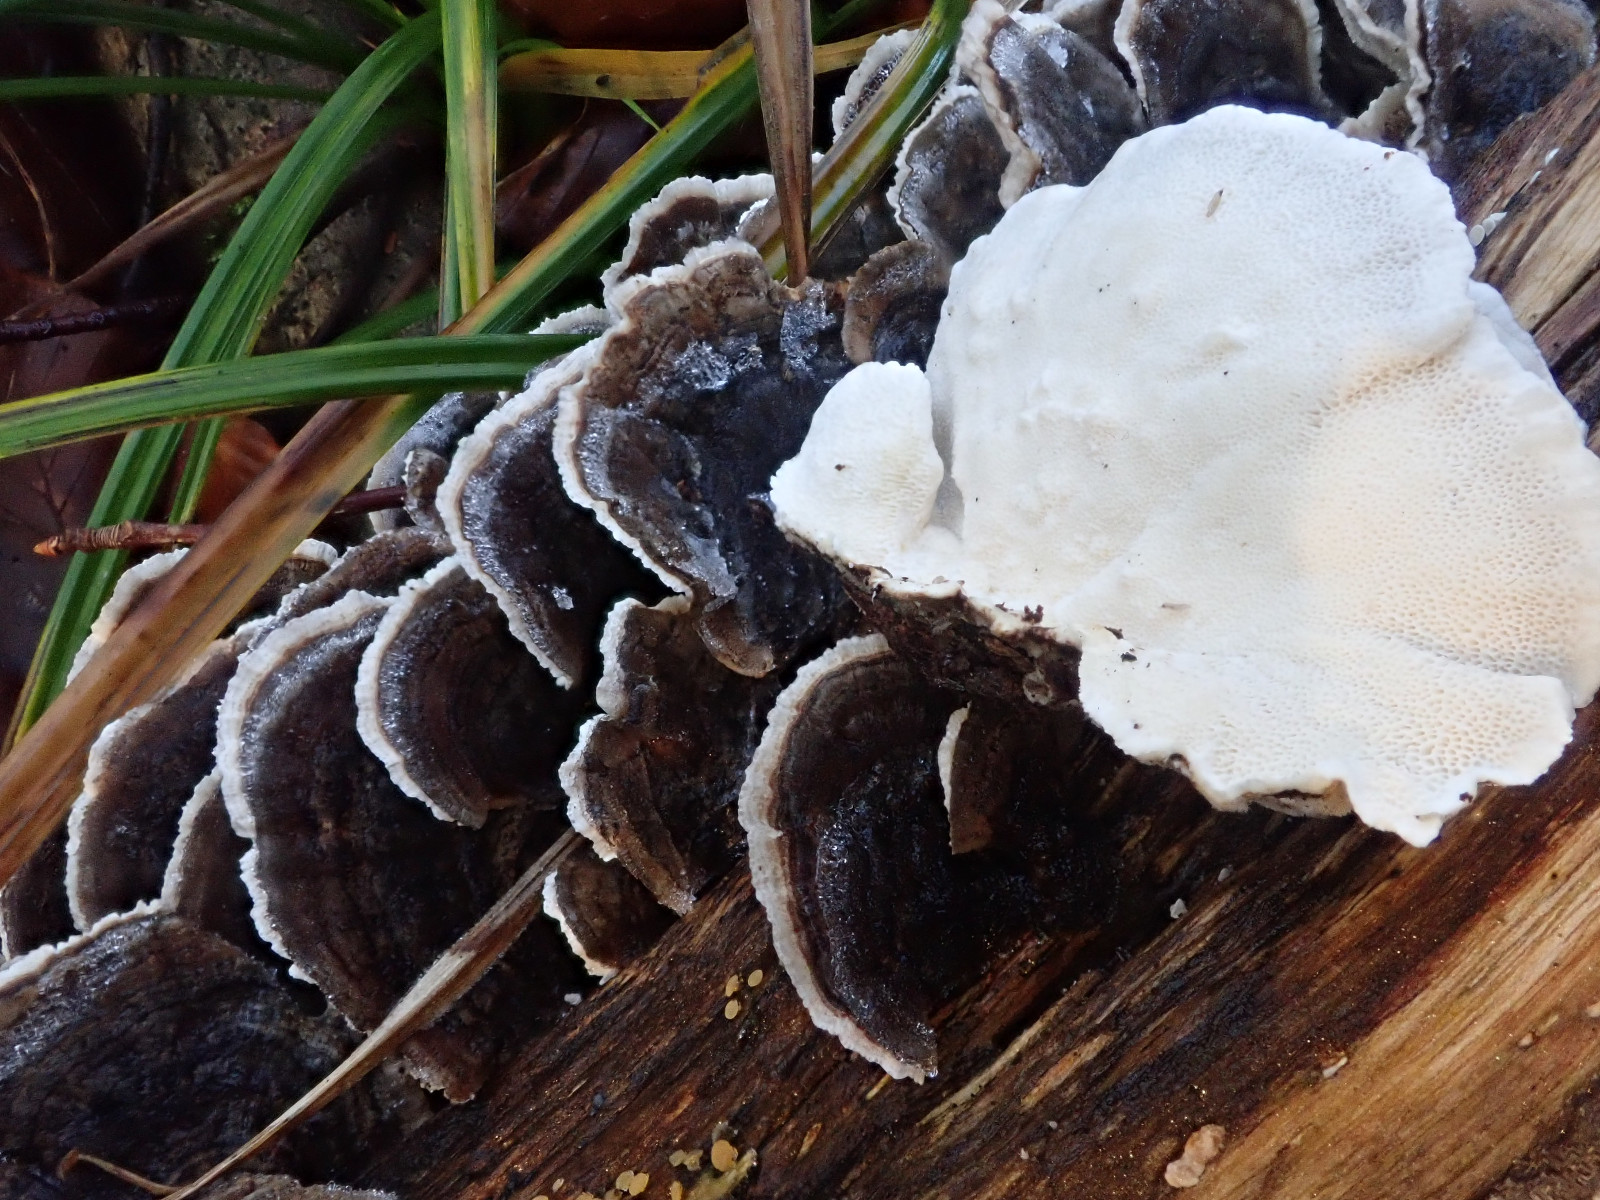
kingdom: Fungi
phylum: Basidiomycota
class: Agaricomycetes
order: Polyporales
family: Polyporaceae
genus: Trametes
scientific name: Trametes versicolor
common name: broget læderporesvamp
